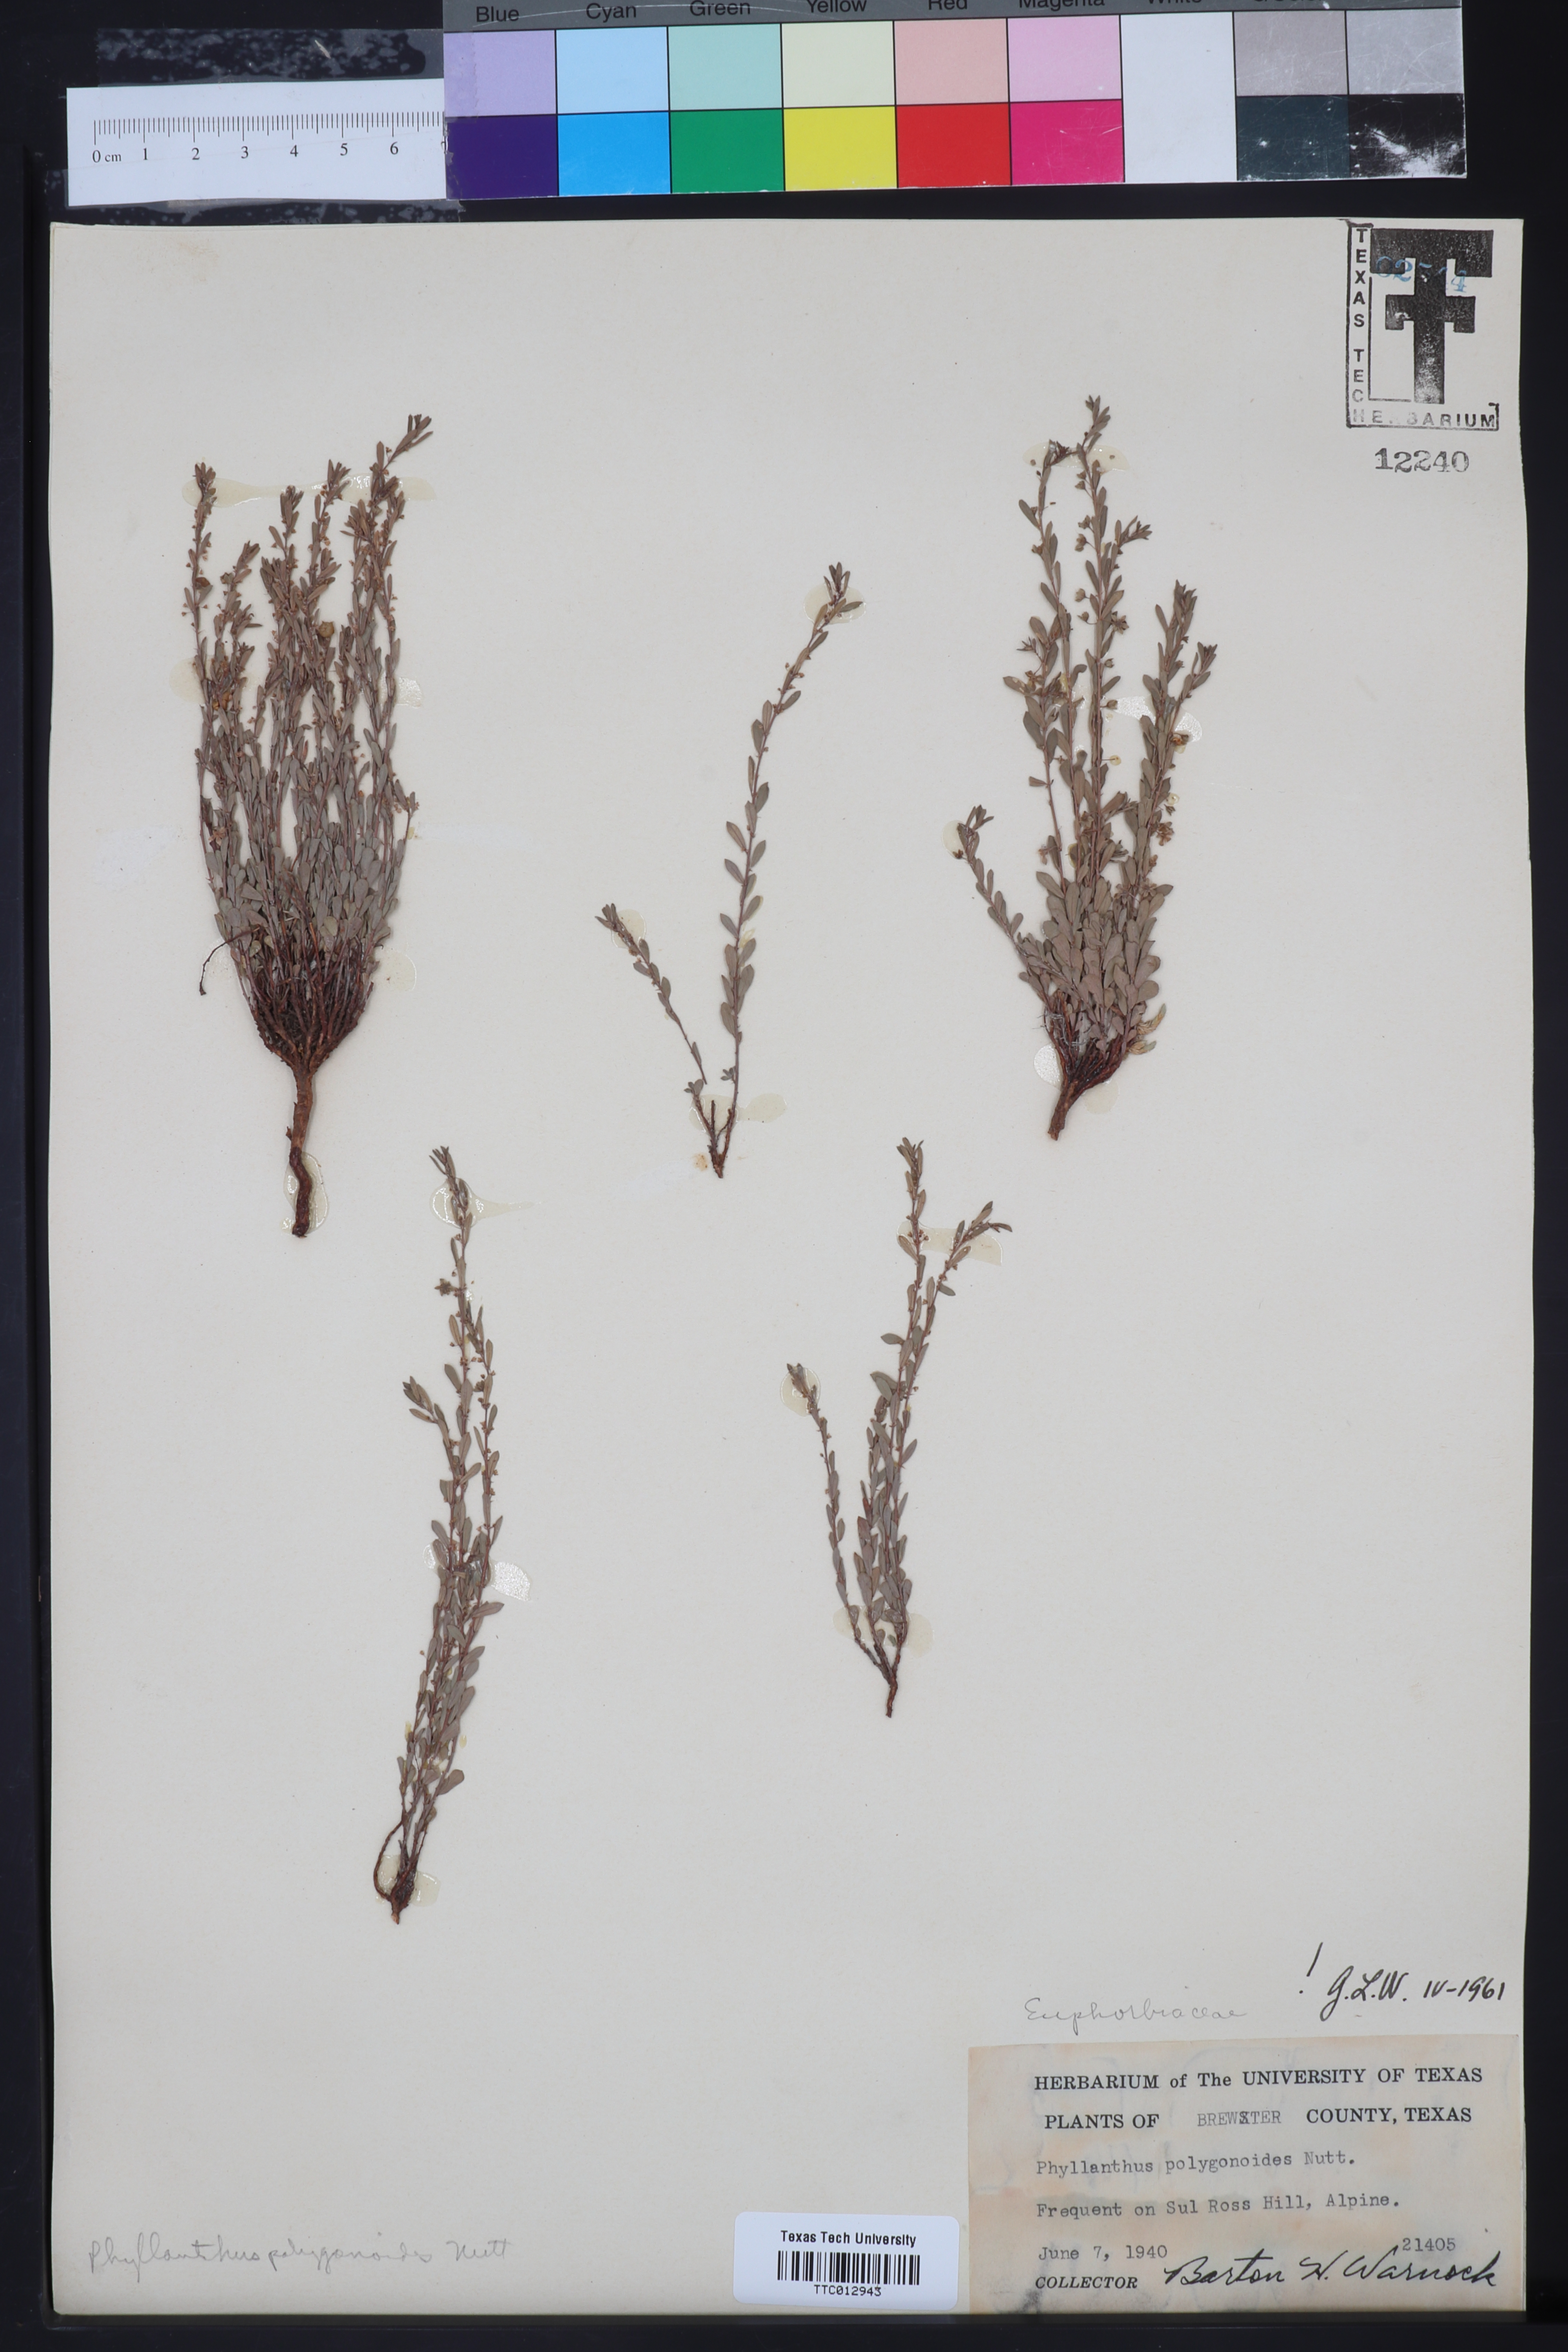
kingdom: Plantae
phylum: Tracheophyta
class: Magnoliopsida
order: Malpighiales
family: Phyllanthaceae
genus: Phyllanthus
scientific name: Phyllanthus polygonoides
